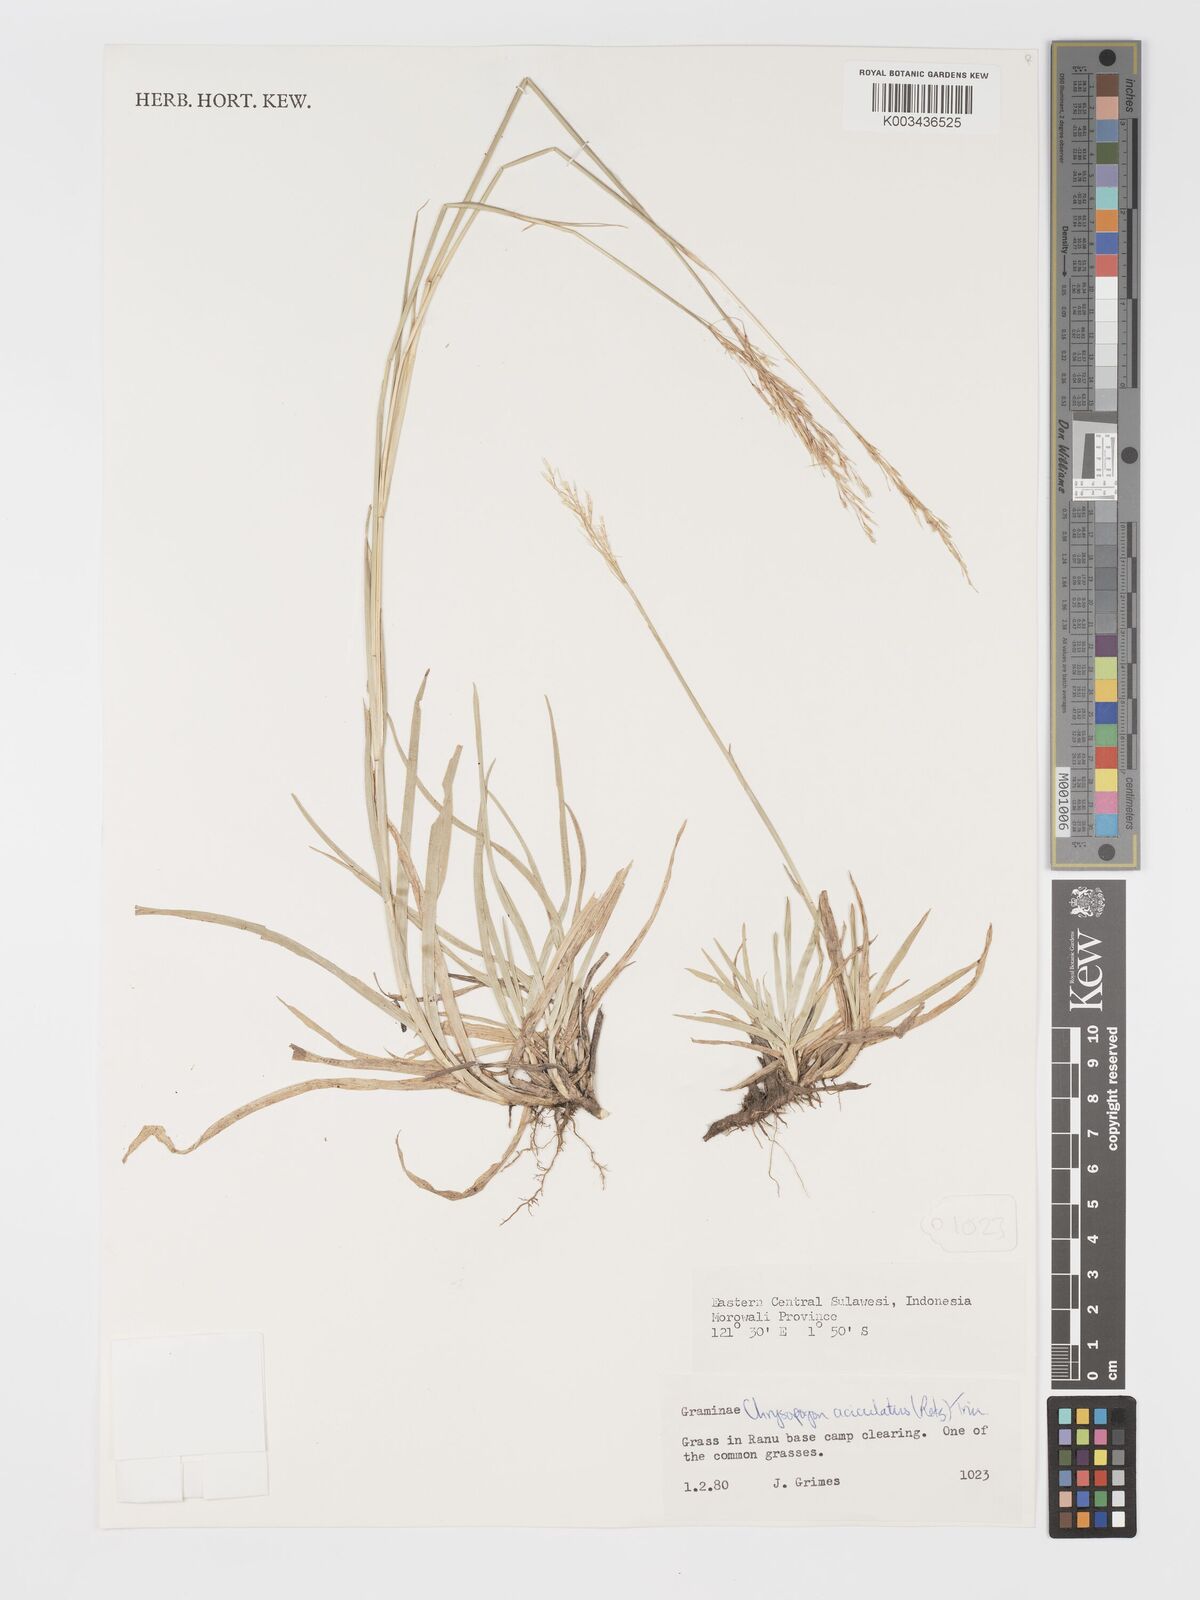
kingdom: Plantae
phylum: Tracheophyta
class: Liliopsida
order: Poales
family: Poaceae
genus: Chrysopogon
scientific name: Chrysopogon aciculatus
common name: Pilipiliula
